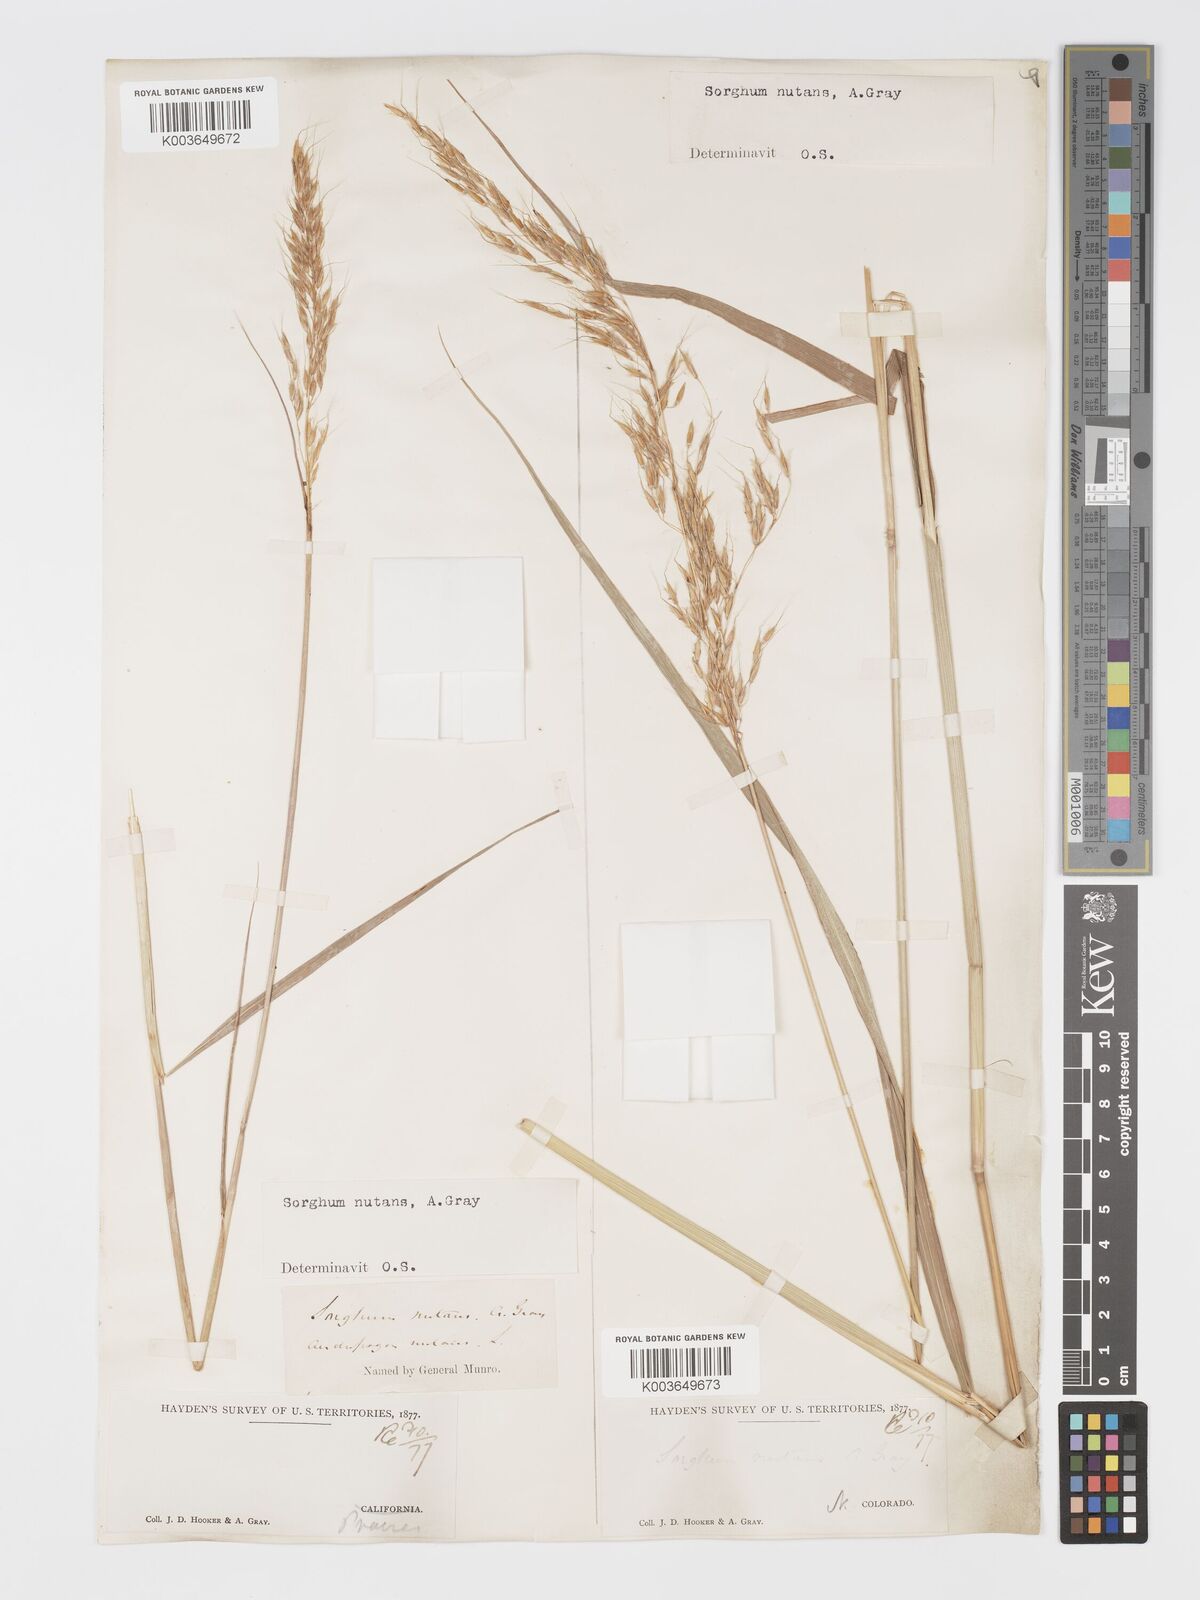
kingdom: Plantae
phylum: Tracheophyta
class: Liliopsida
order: Poales
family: Poaceae
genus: Sorghastrum
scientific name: Sorghastrum nutans
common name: Indian grass
